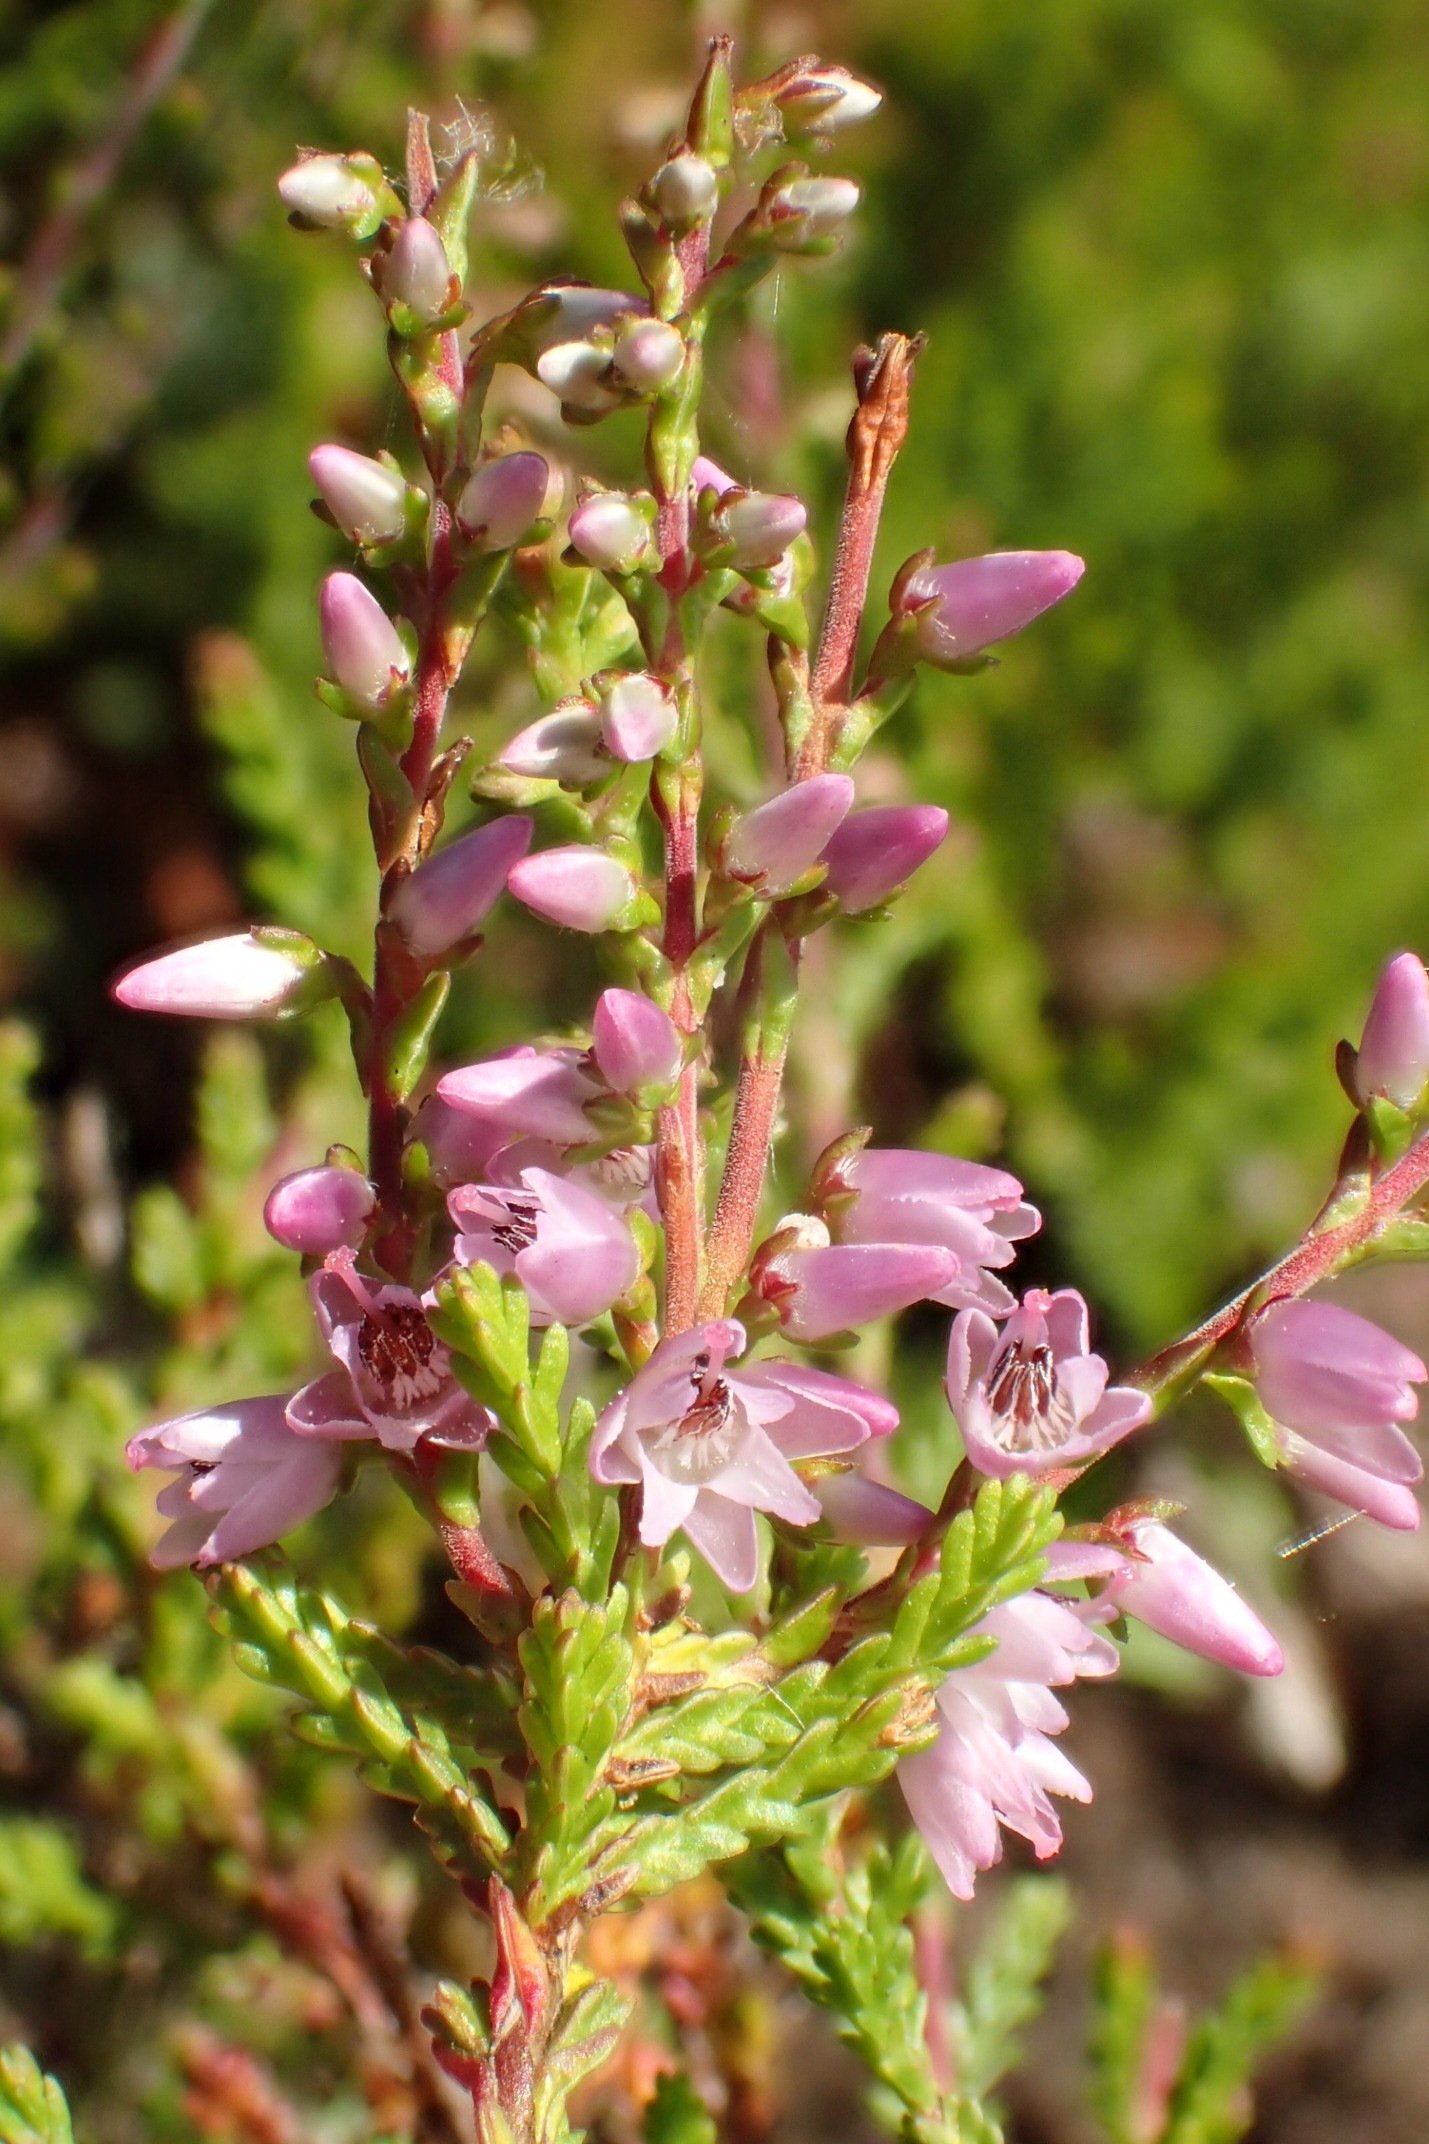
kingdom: Plantae
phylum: Tracheophyta
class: Magnoliopsida
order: Ericales
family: Ericaceae
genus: Calluna
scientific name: Calluna vulgaris
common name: Hedelyng
